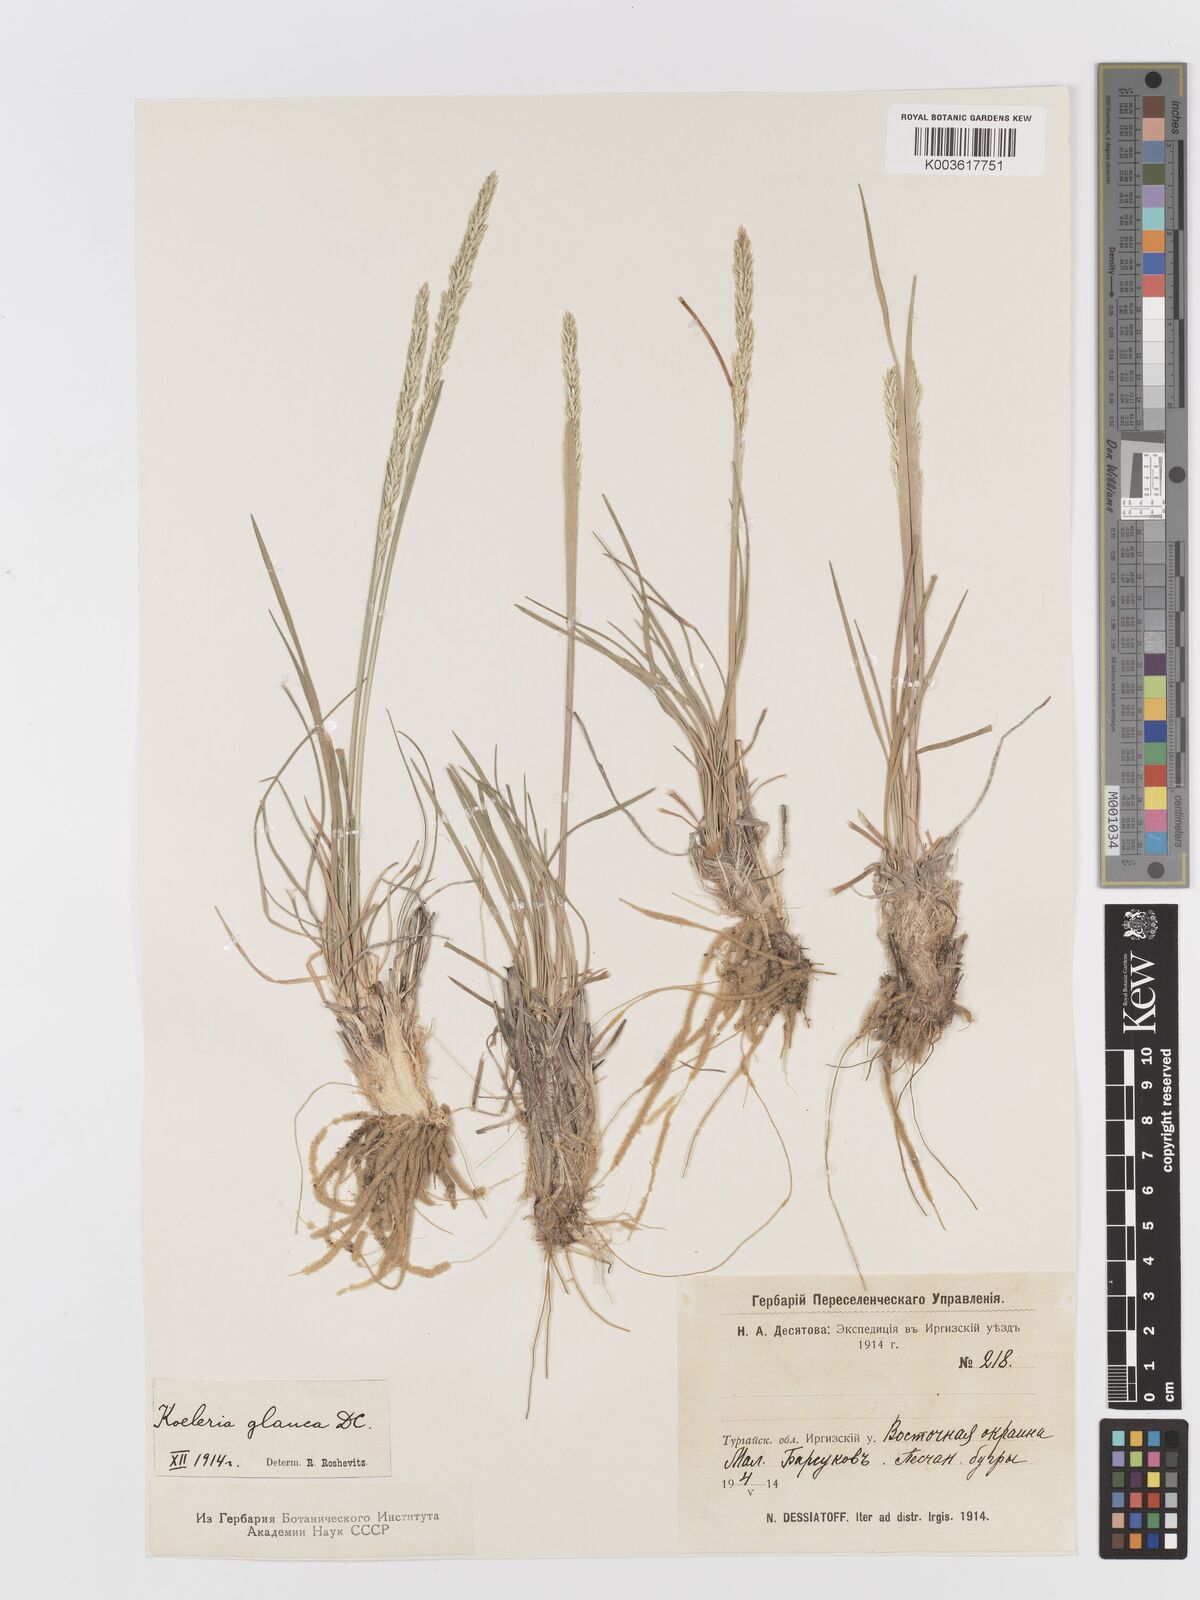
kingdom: Plantae
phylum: Tracheophyta
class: Liliopsida
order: Poales
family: Poaceae
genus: Koeleria
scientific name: Koeleria glauca
